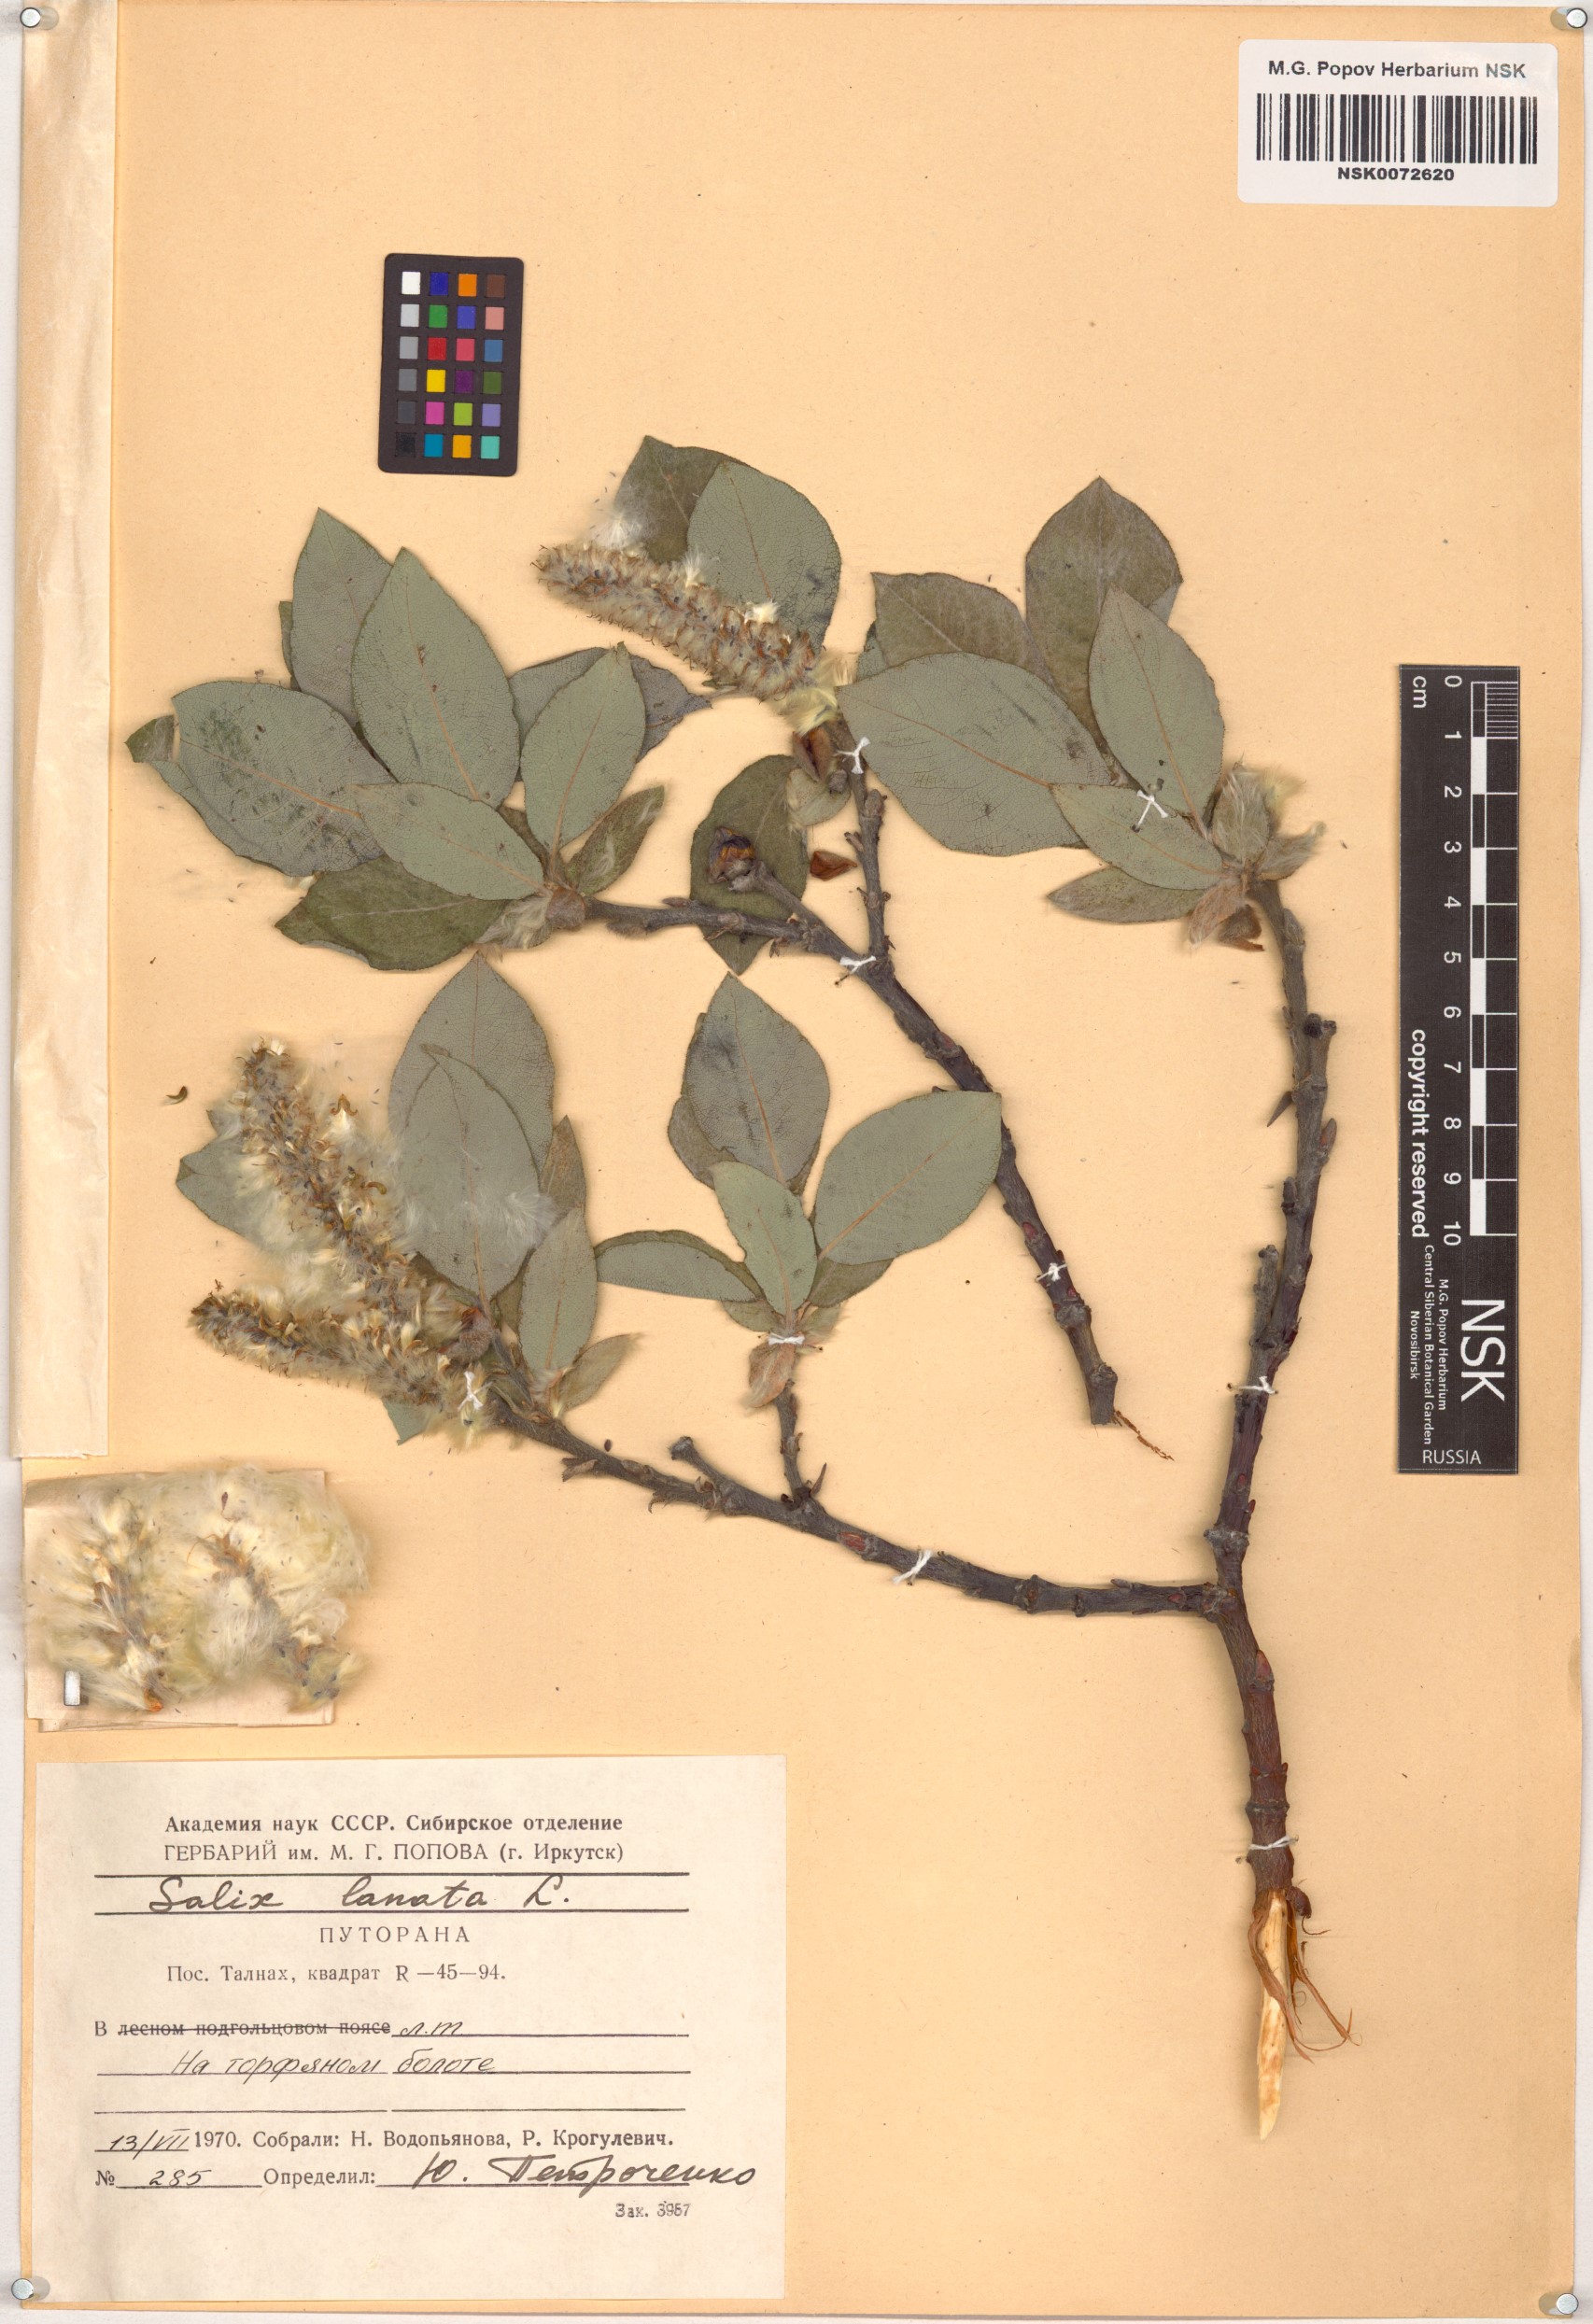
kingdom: Plantae
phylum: Tracheophyta
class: Magnoliopsida
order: Malpighiales
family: Salicaceae
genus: Salix
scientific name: Salix lanata
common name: Woolly willow
